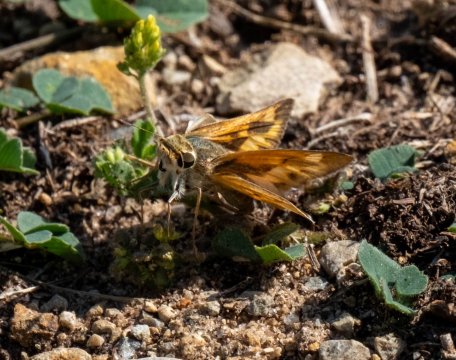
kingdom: Animalia
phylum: Arthropoda
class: Insecta
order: Lepidoptera
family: Hesperiidae
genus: Hylephila
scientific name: Hylephila phyleus
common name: Fiery Skipper
